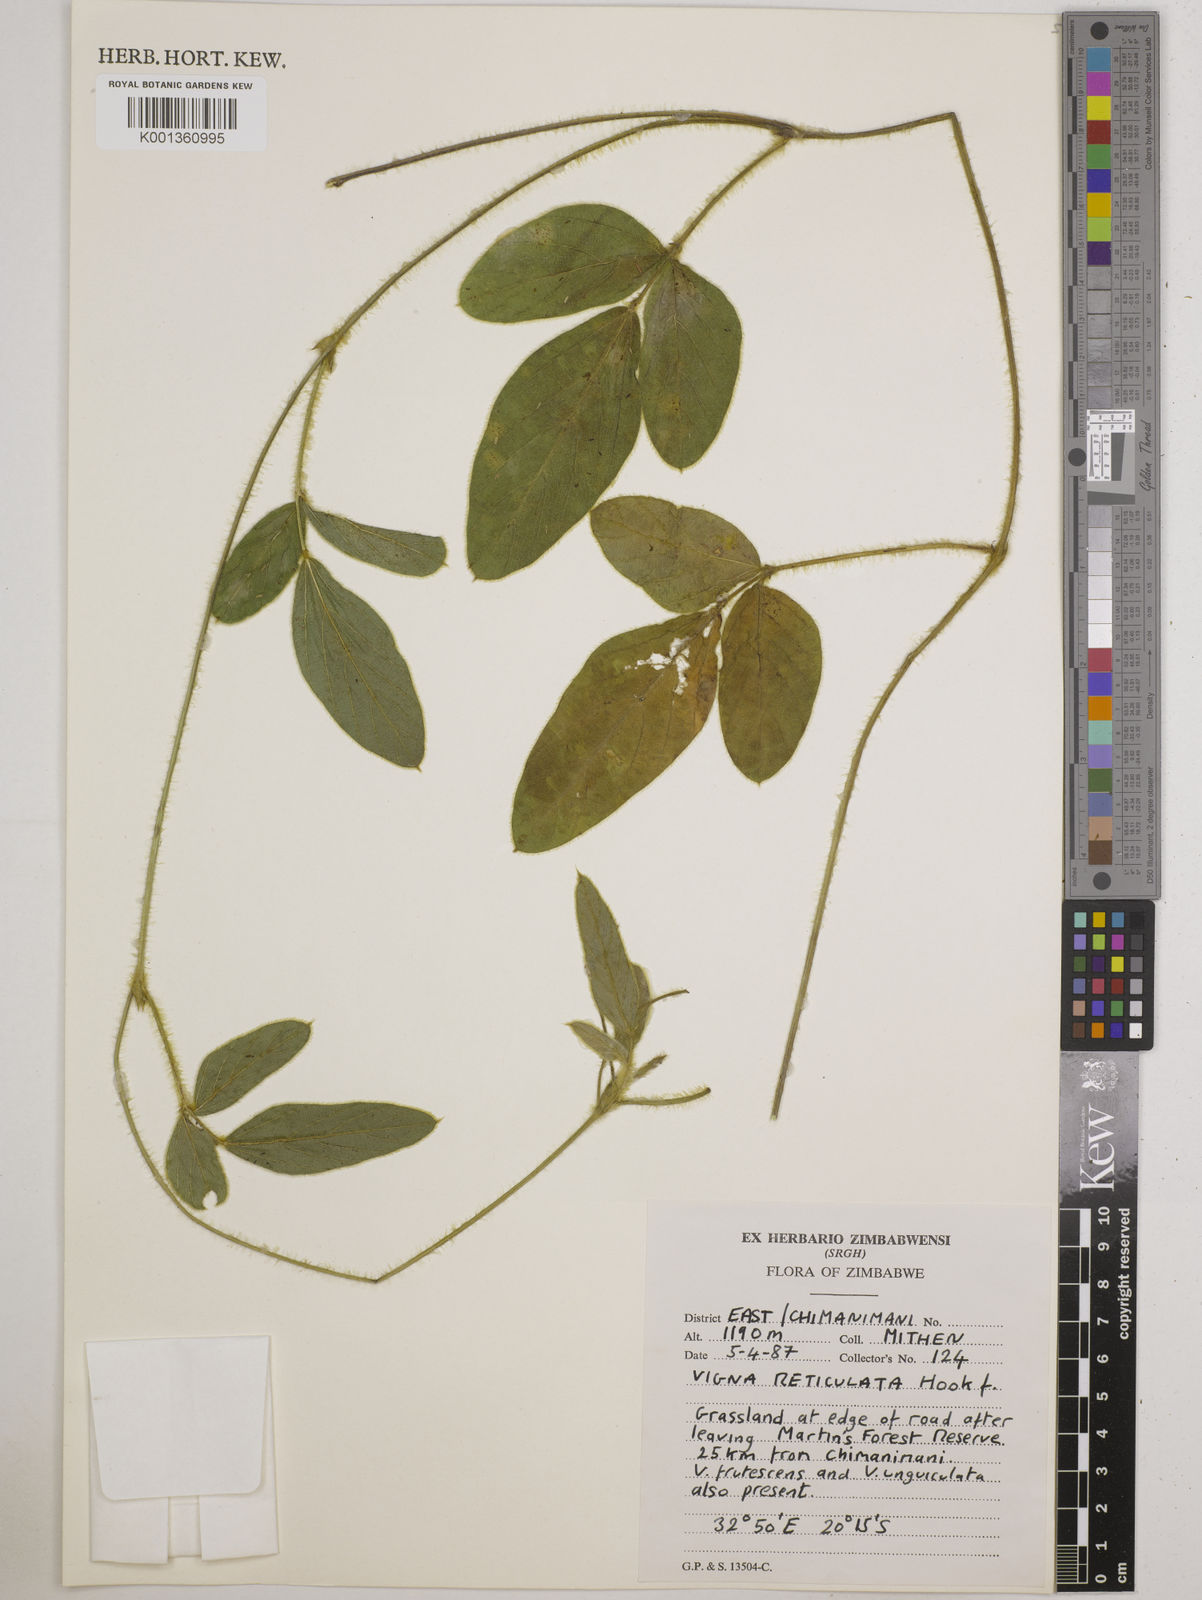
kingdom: Plantae
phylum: Tracheophyta
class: Magnoliopsida
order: Fabales
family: Fabaceae
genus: Vigna
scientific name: Vigna reticulata
